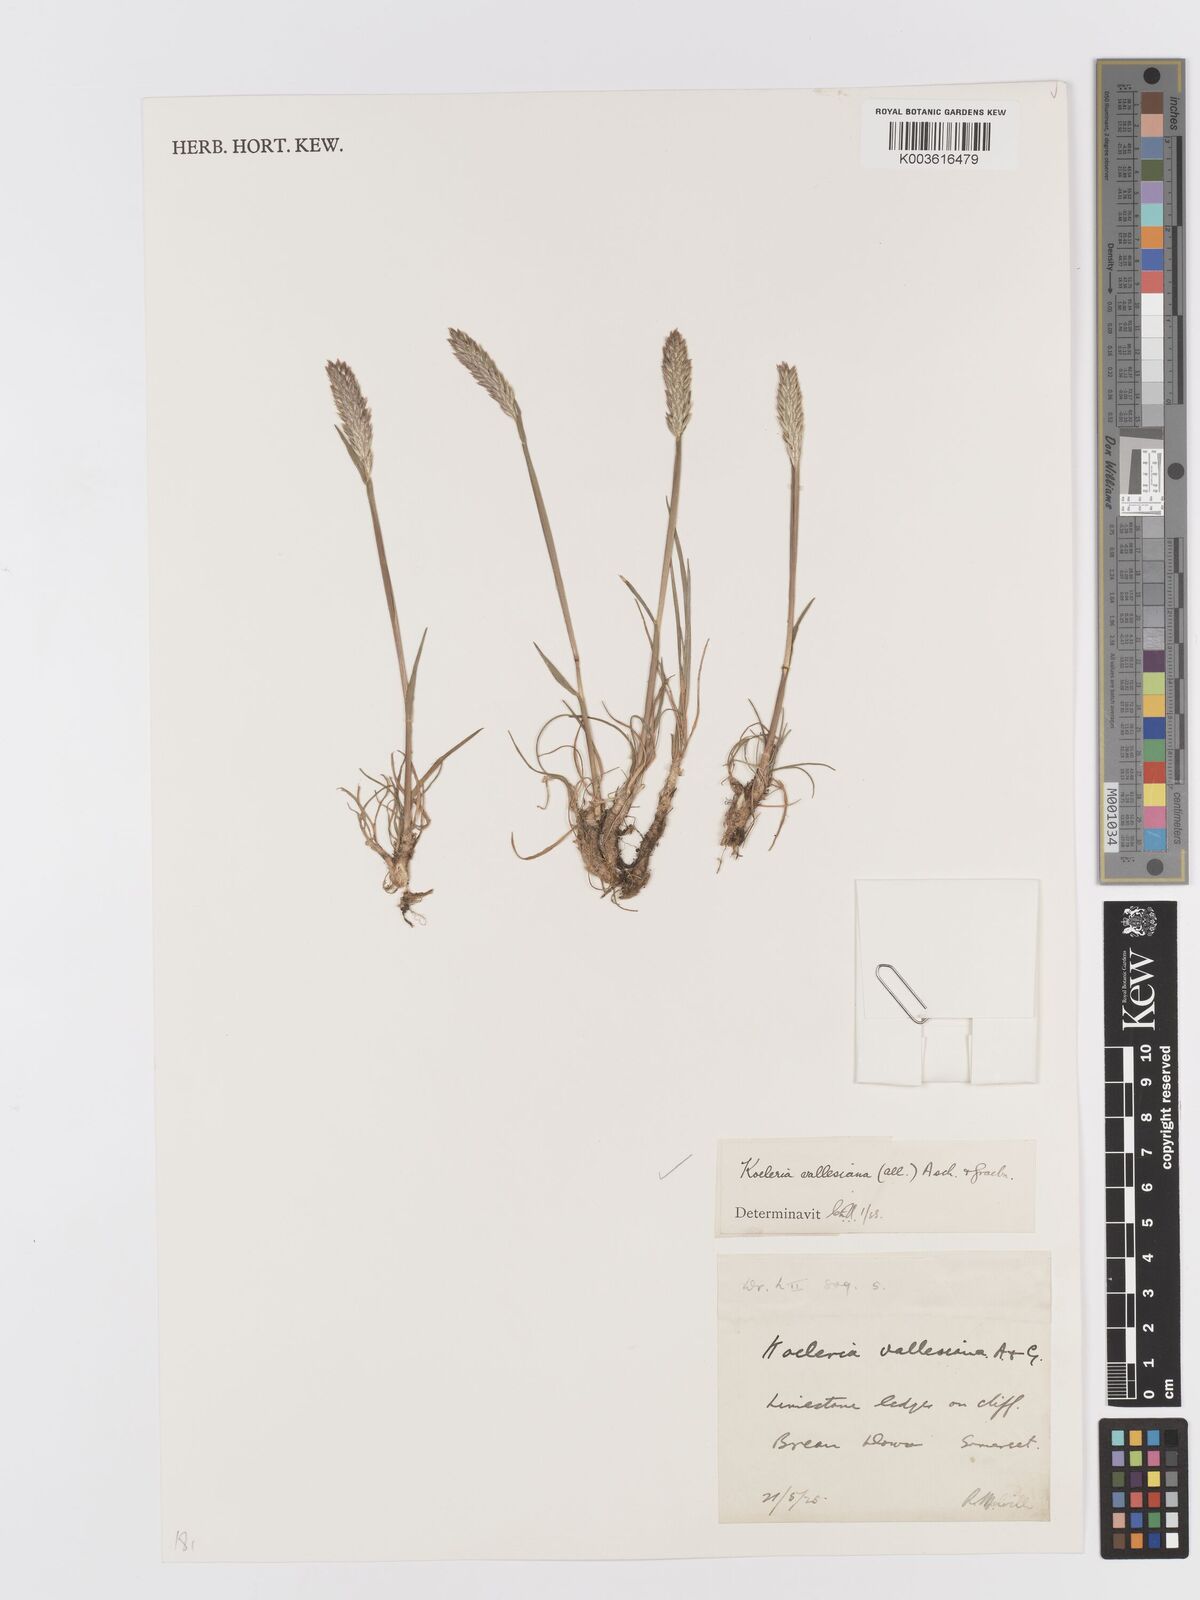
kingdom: Plantae
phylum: Tracheophyta
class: Liliopsida
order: Poales
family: Poaceae
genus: Koeleria
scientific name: Koeleria vallesiana
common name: Somerset hair-grass
